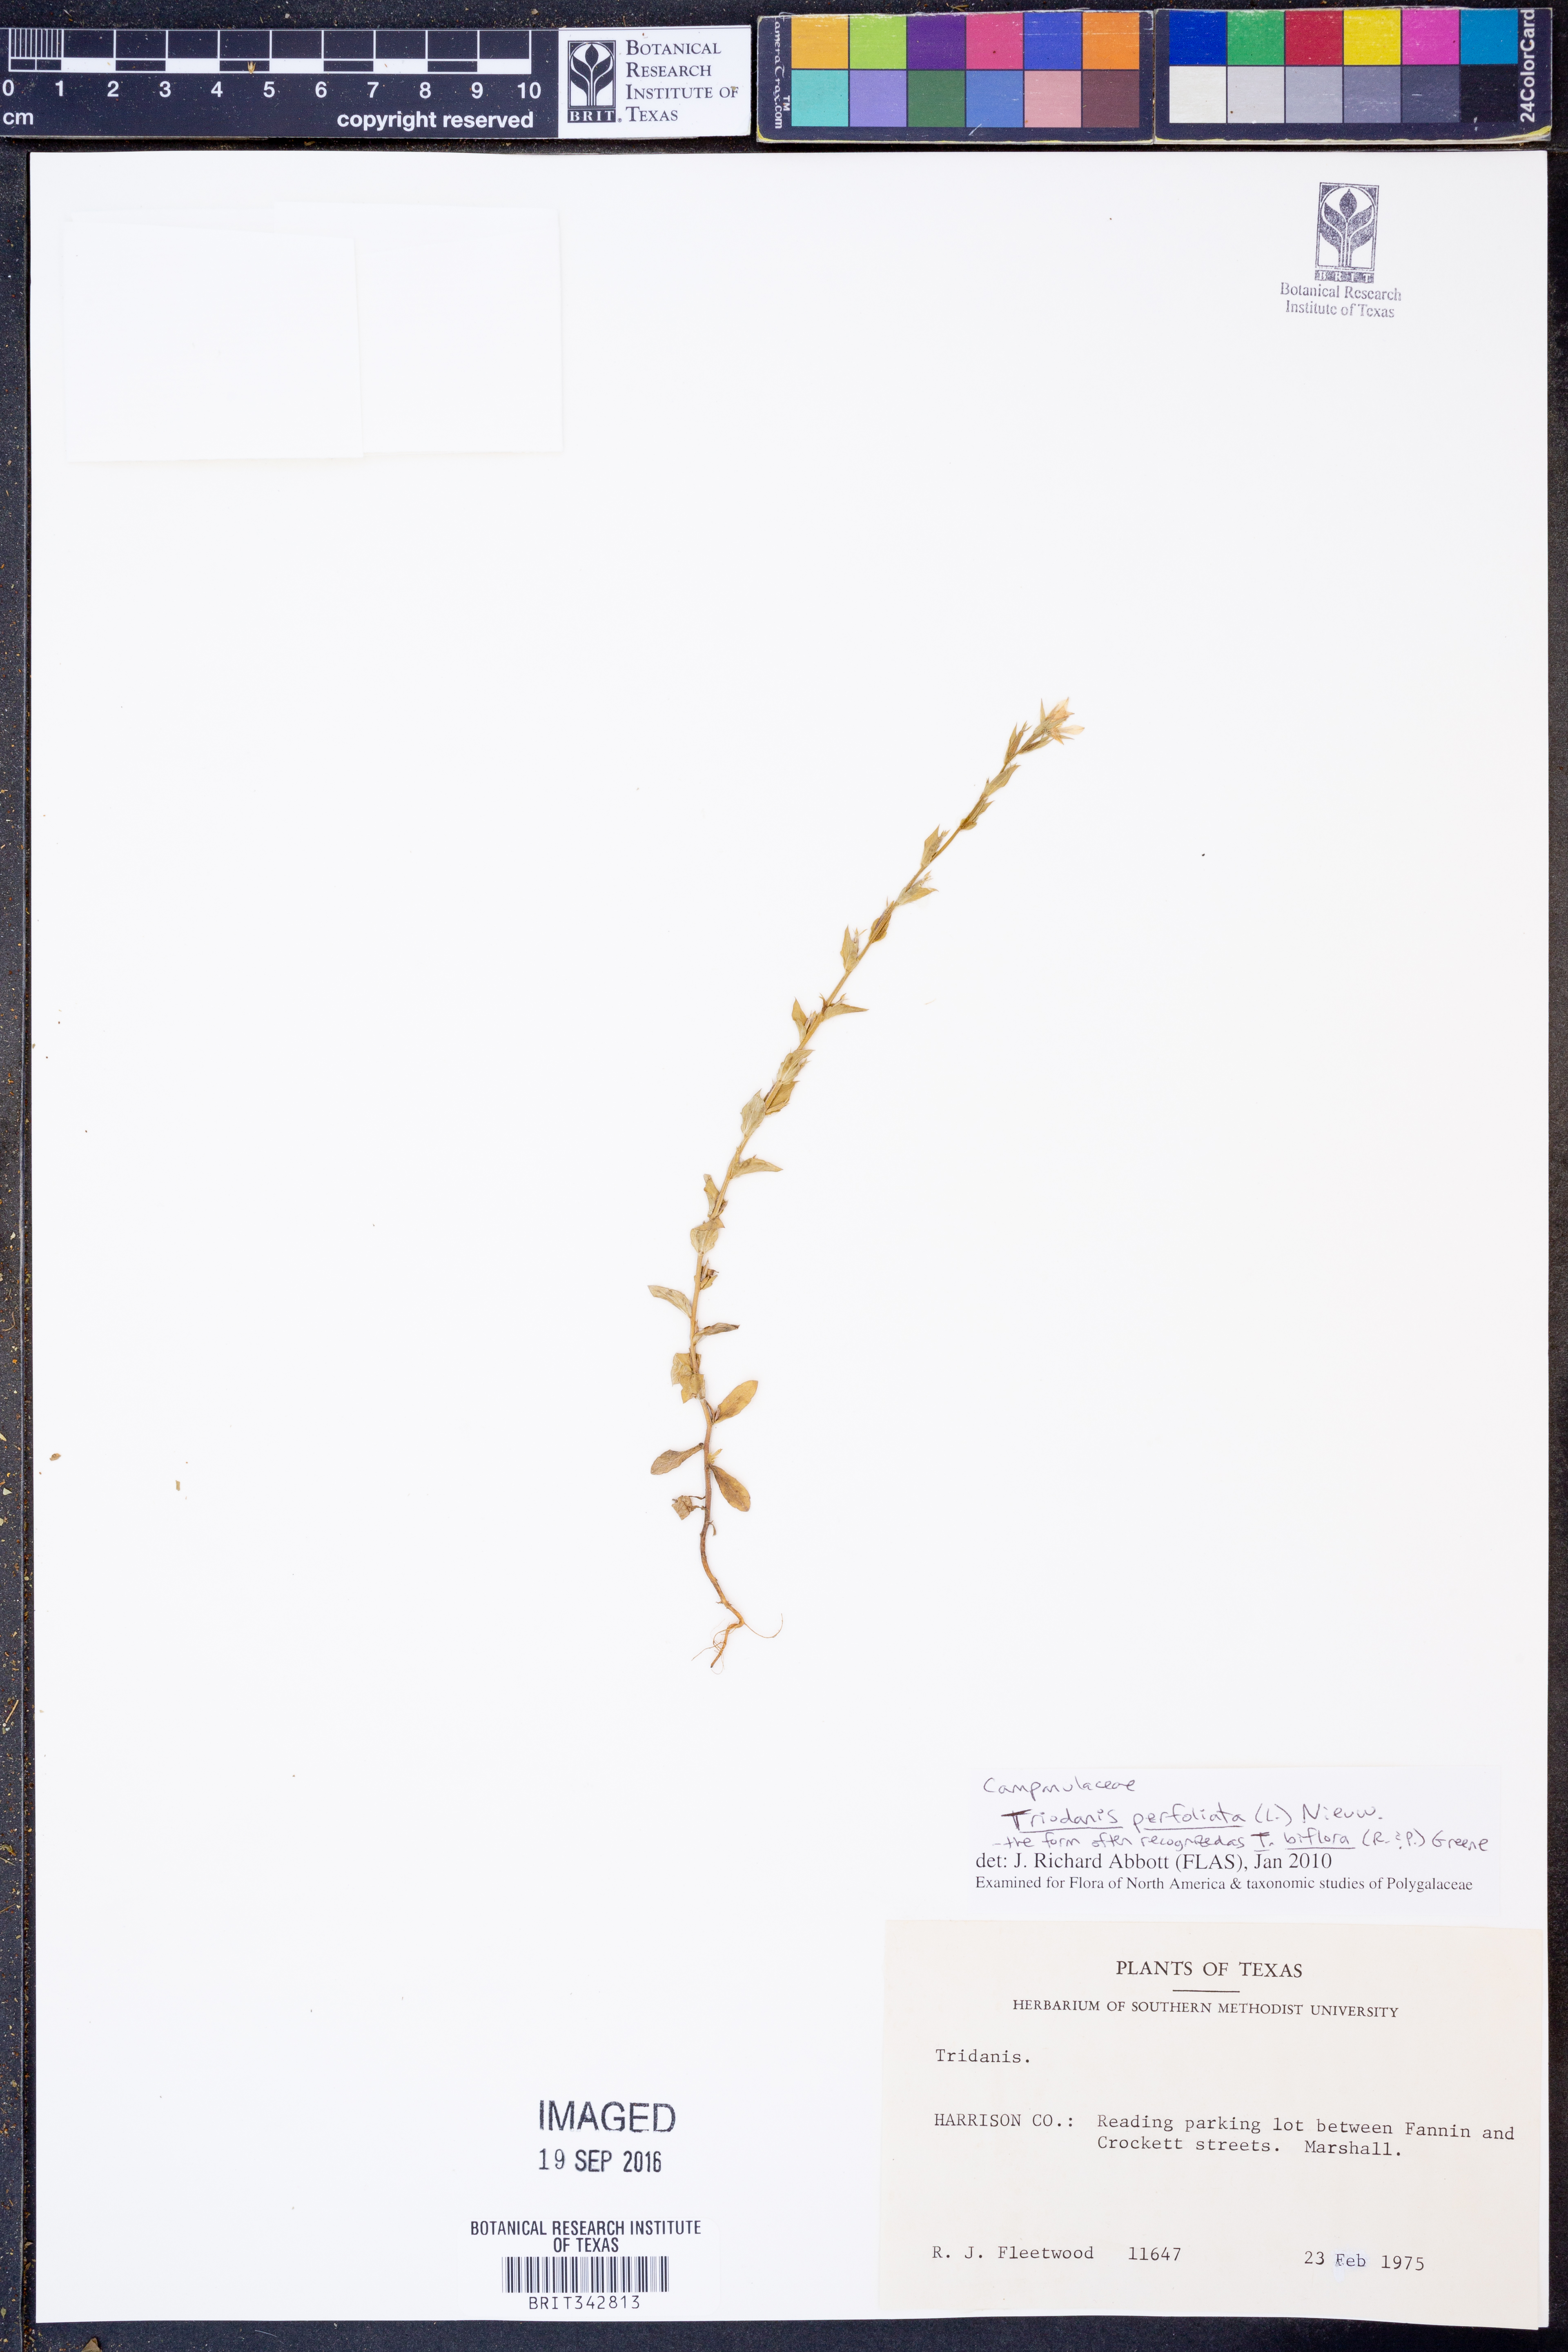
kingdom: Plantae
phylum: Tracheophyta
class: Magnoliopsida
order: Asterales
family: Campanulaceae
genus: Triodanis
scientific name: Triodanis perfoliata
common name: Clasping venus' looking-glass
